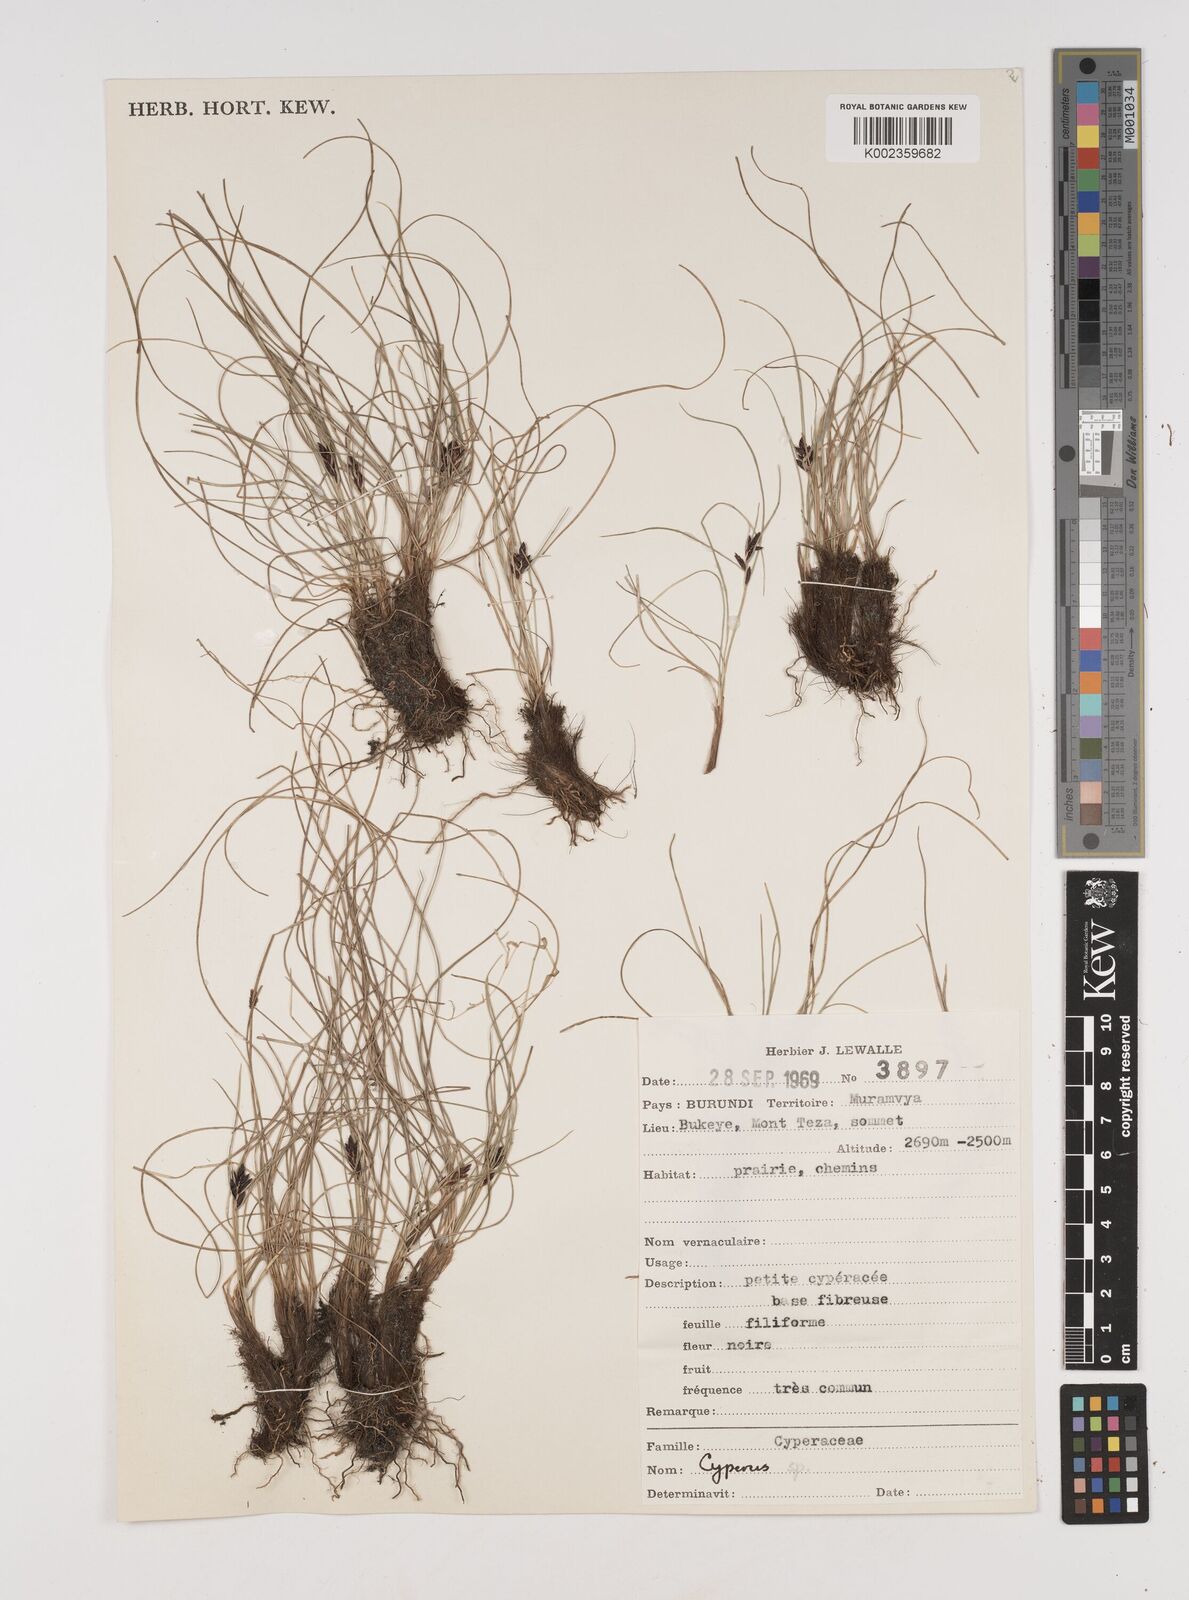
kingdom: Plantae
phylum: Tracheophyta
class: Liliopsida
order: Poales
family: Cyperaceae
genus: Cyperus
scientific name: Cyperus
